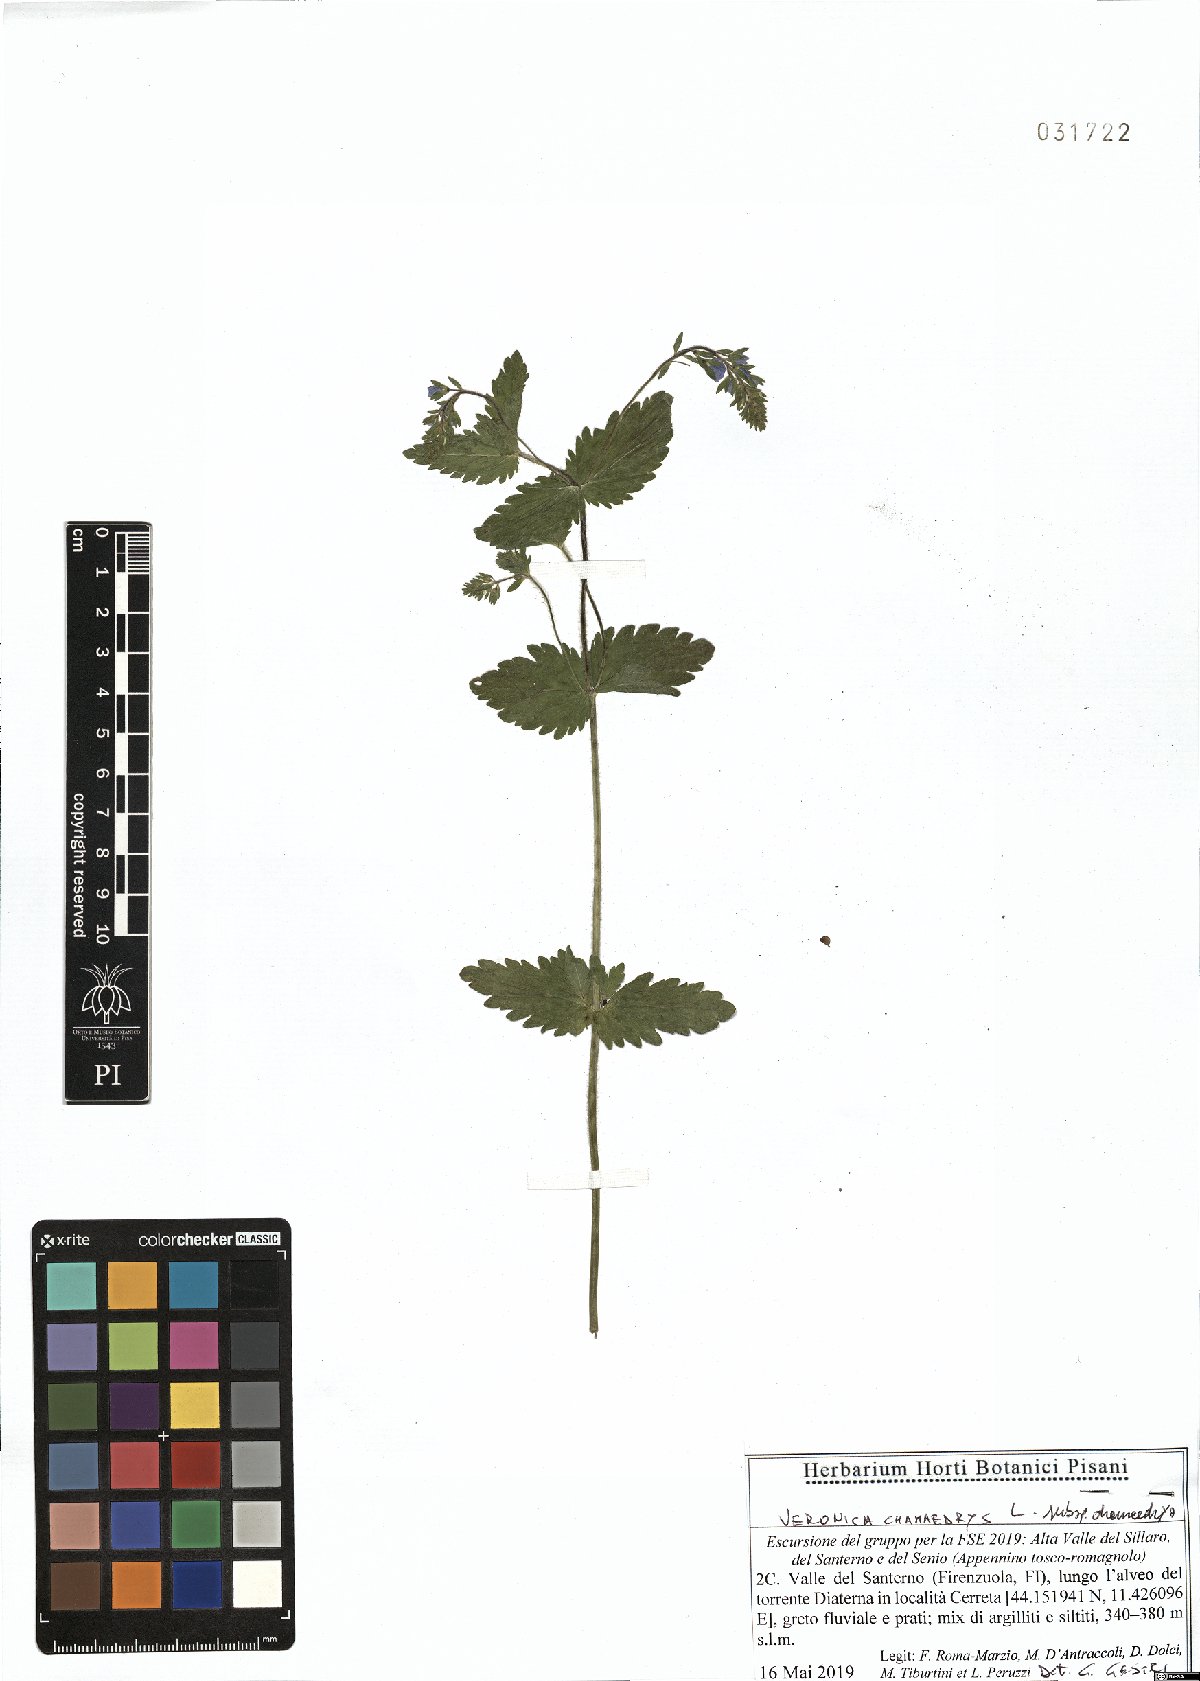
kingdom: Plantae
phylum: Tracheophyta
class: Magnoliopsida
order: Lamiales
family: Plantaginaceae
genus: Veronica
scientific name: Veronica chamaedrys
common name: Germander speedwell
